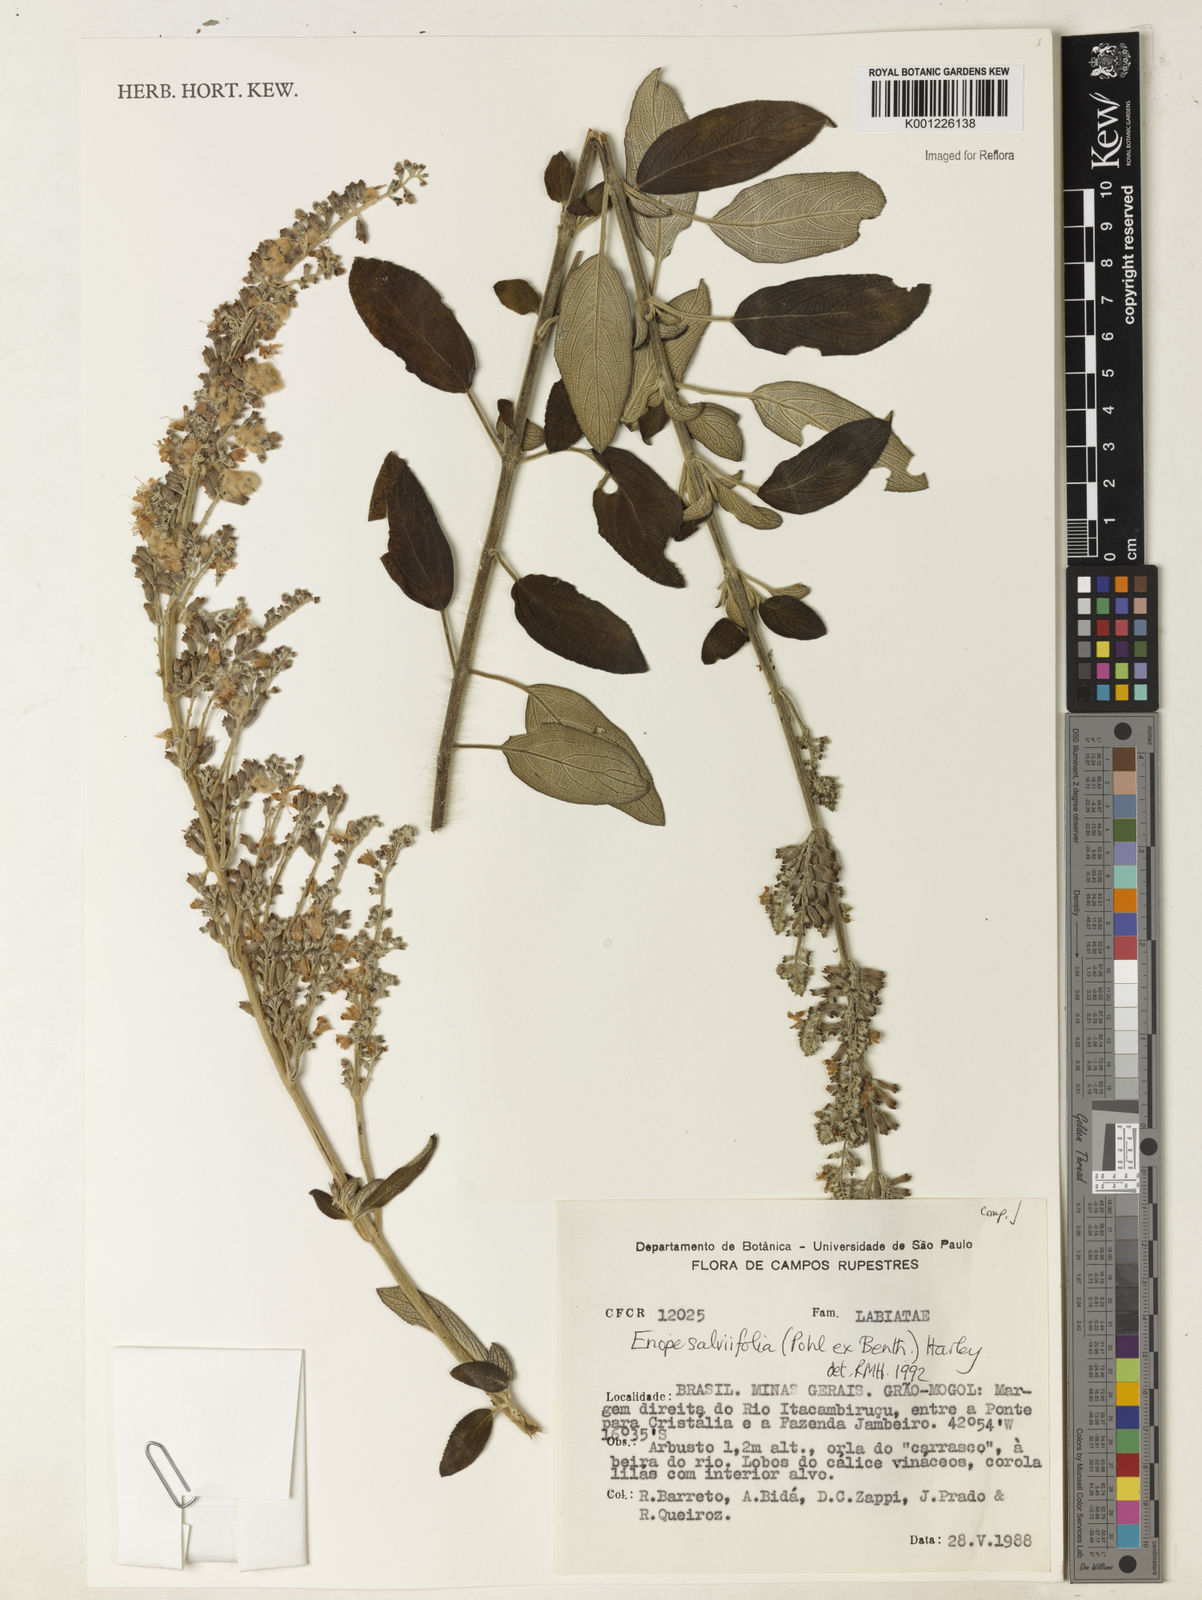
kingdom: Plantae
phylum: Tracheophyta
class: Magnoliopsida
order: Lamiales
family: Lamiaceae
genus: Eriope
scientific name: Eriope salviifolia
